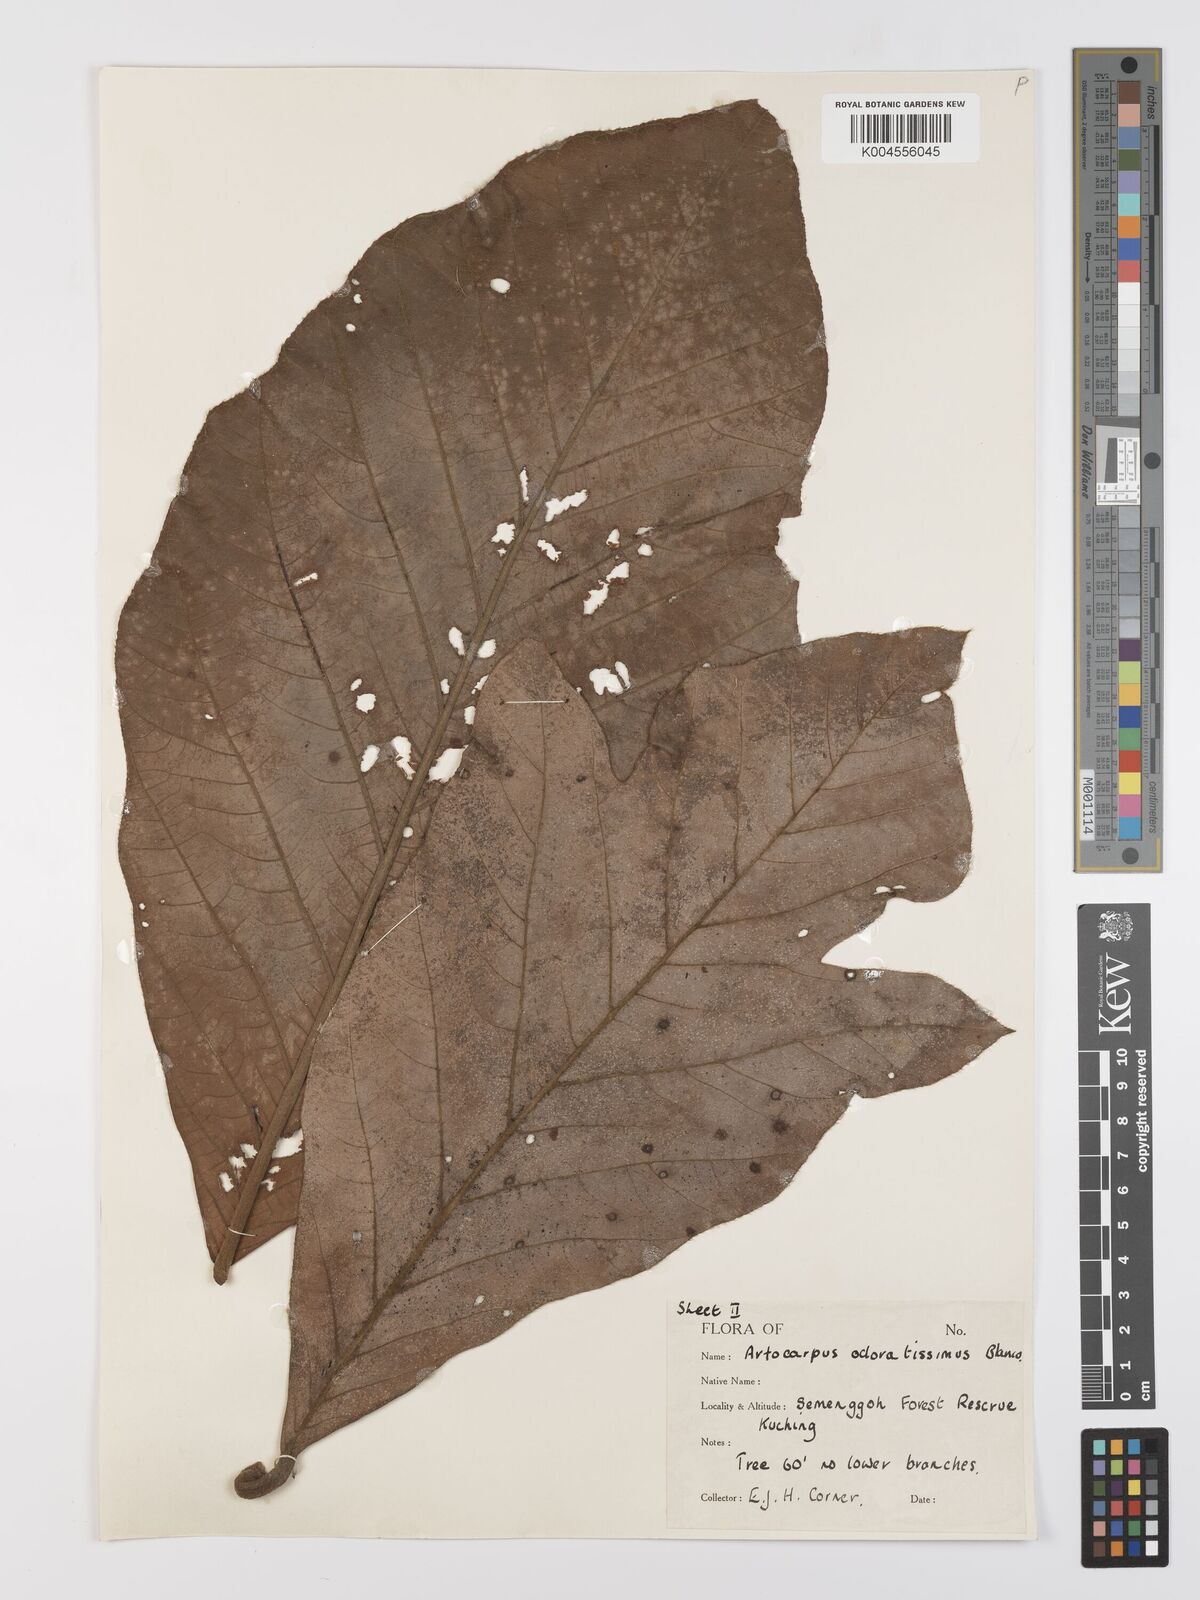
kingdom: Plantae
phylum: Tracheophyta
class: Magnoliopsida
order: Rosales
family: Moraceae
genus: Artocarpus
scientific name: Artocarpus odoratissimus
